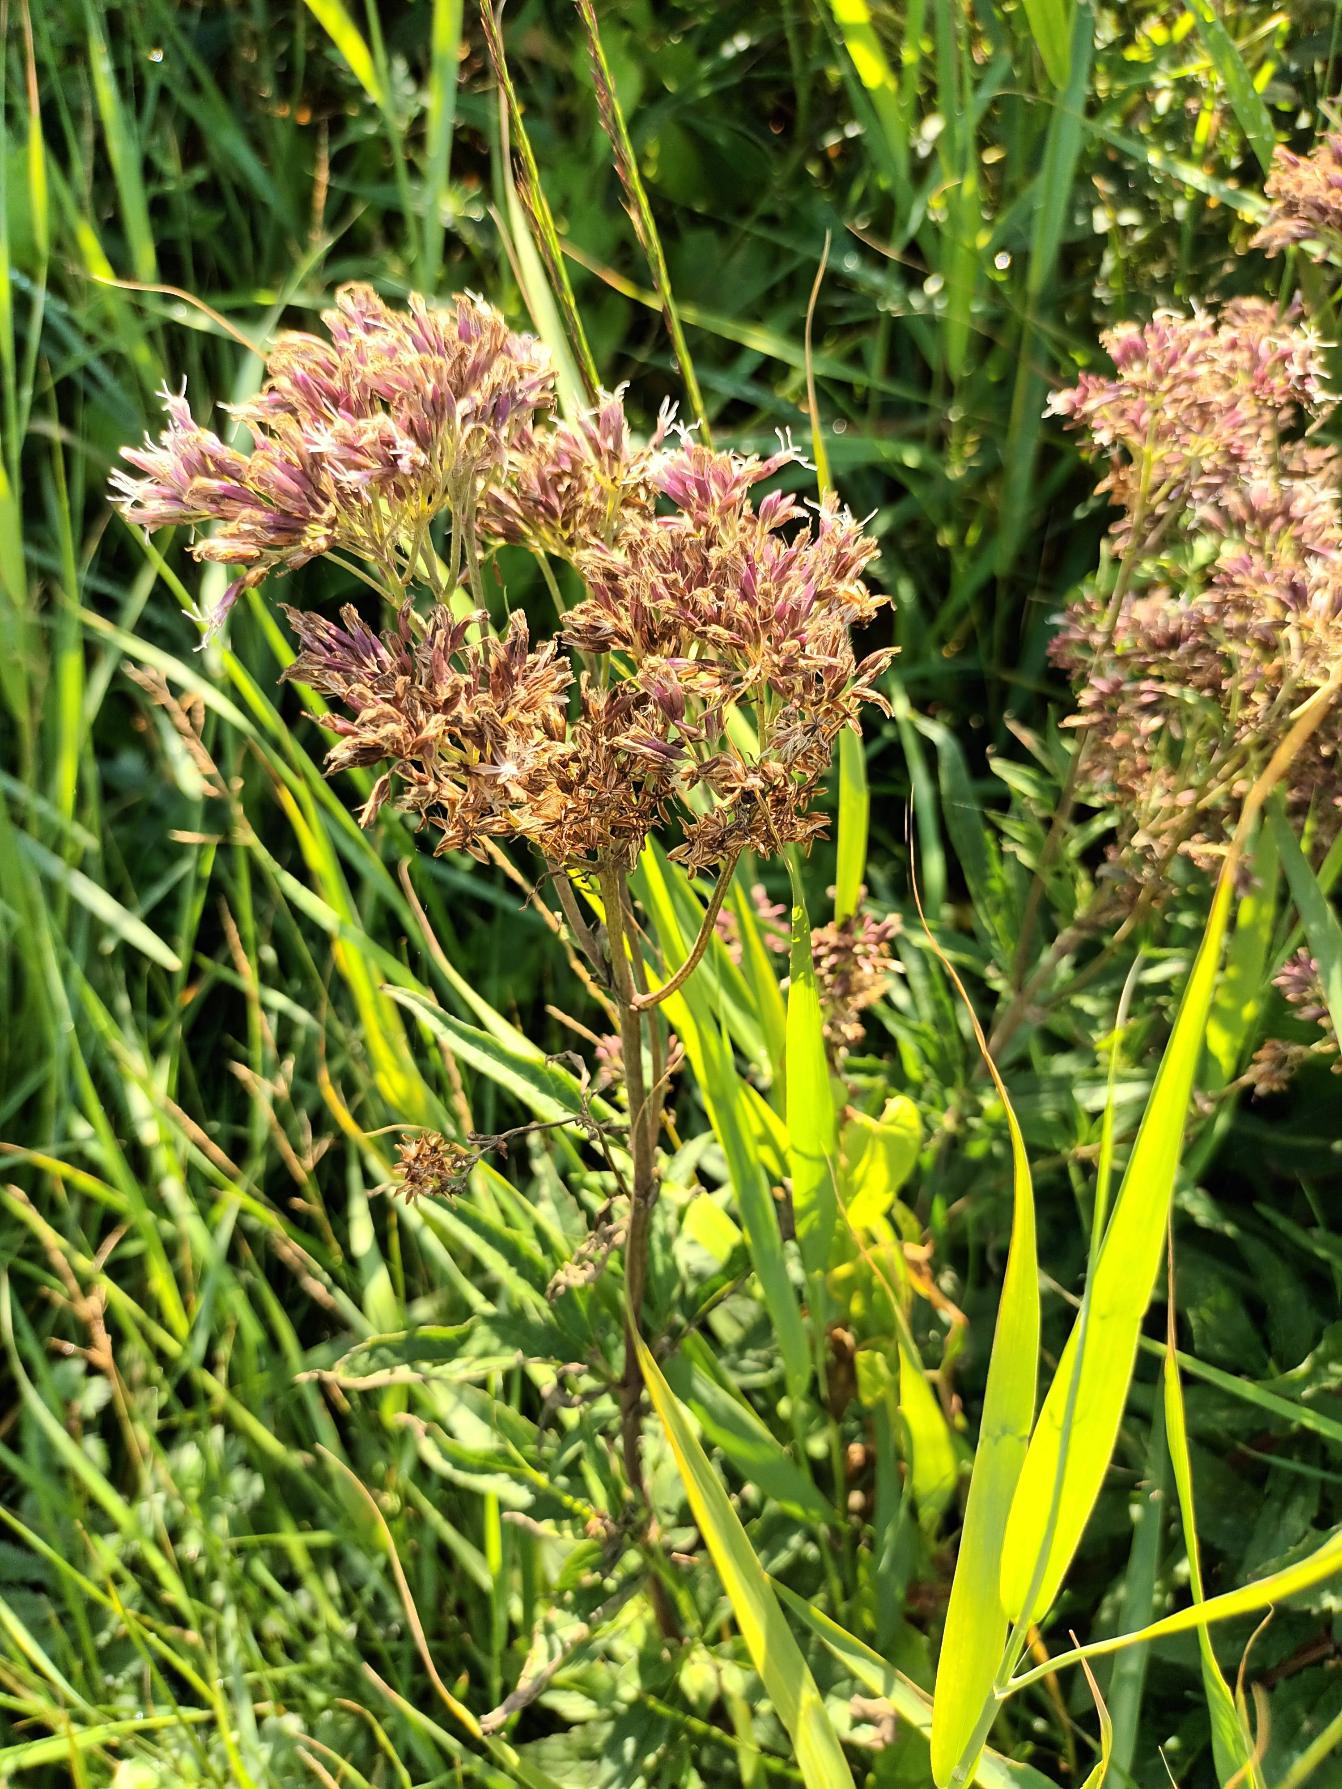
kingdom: Plantae
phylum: Tracheophyta
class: Magnoliopsida
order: Asterales
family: Asteraceae
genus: Eupatorium
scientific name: Eupatorium cannabinum
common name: Hjortetrøst
